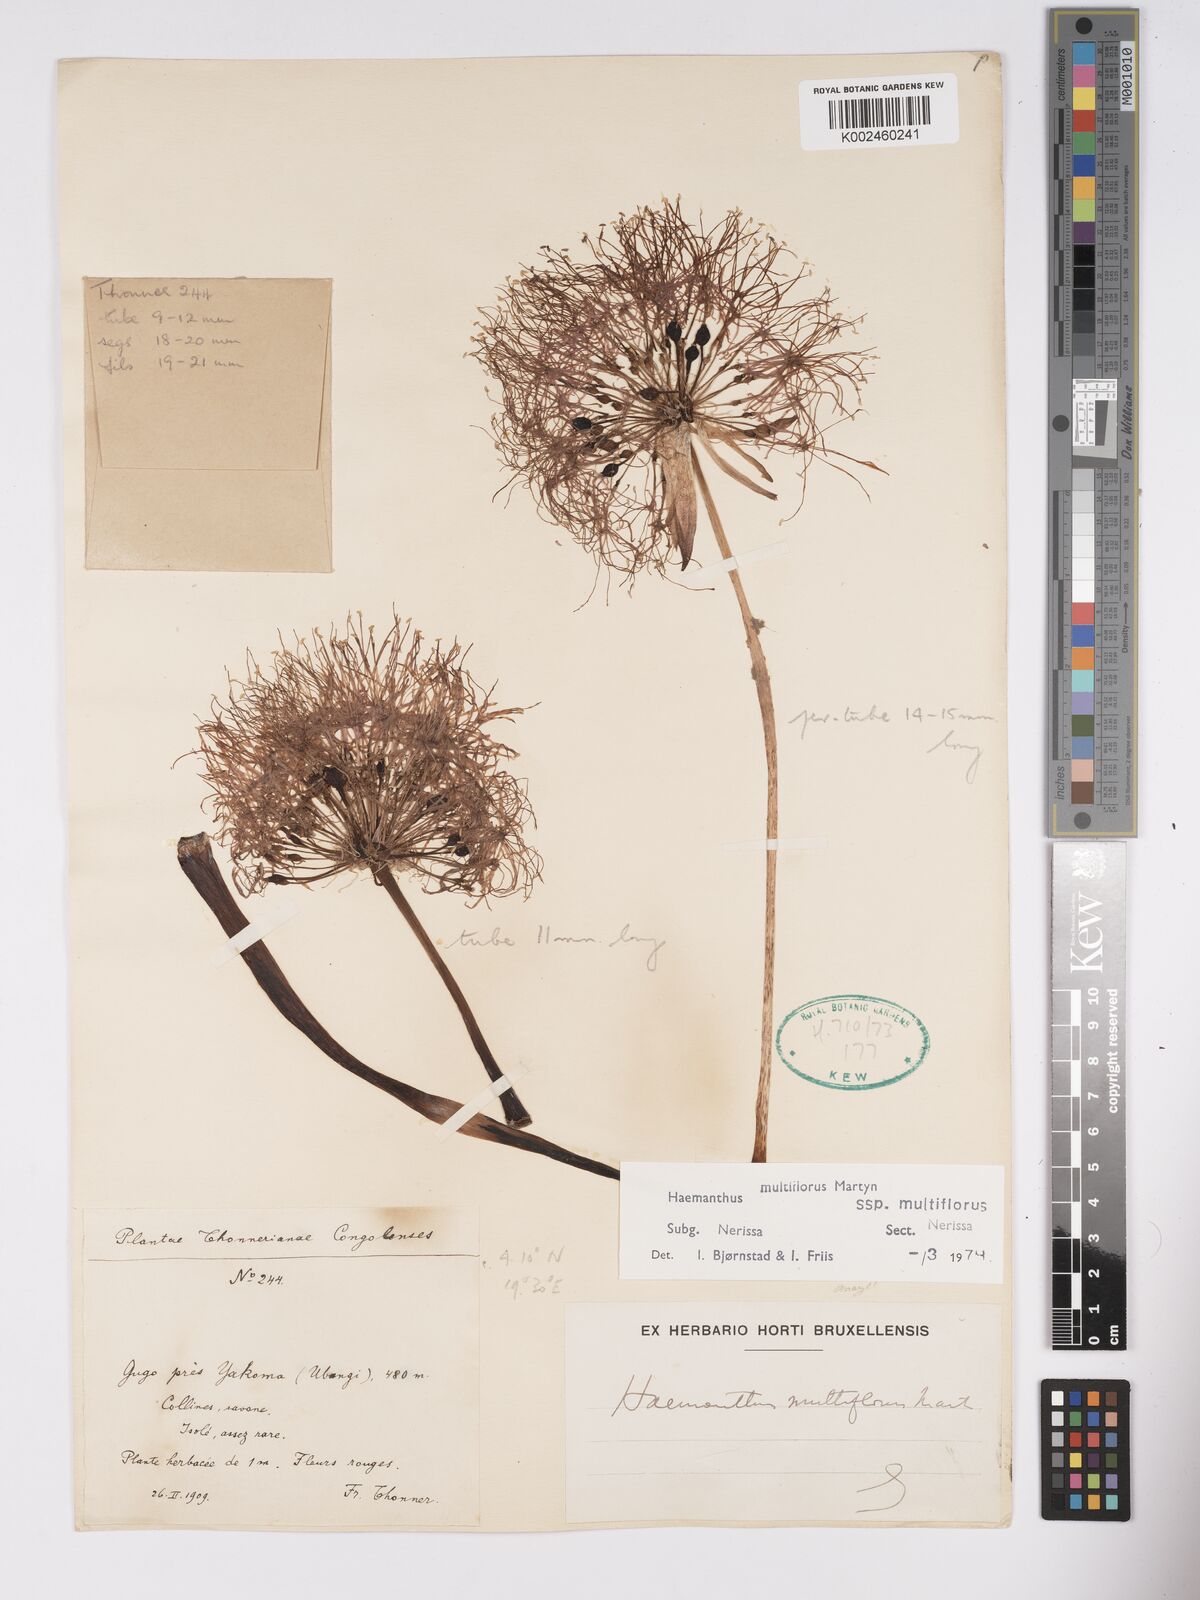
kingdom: Plantae
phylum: Tracheophyta
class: Liliopsida
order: Asparagales
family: Amaryllidaceae
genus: Scadoxus
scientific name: Scadoxus multiflorus
